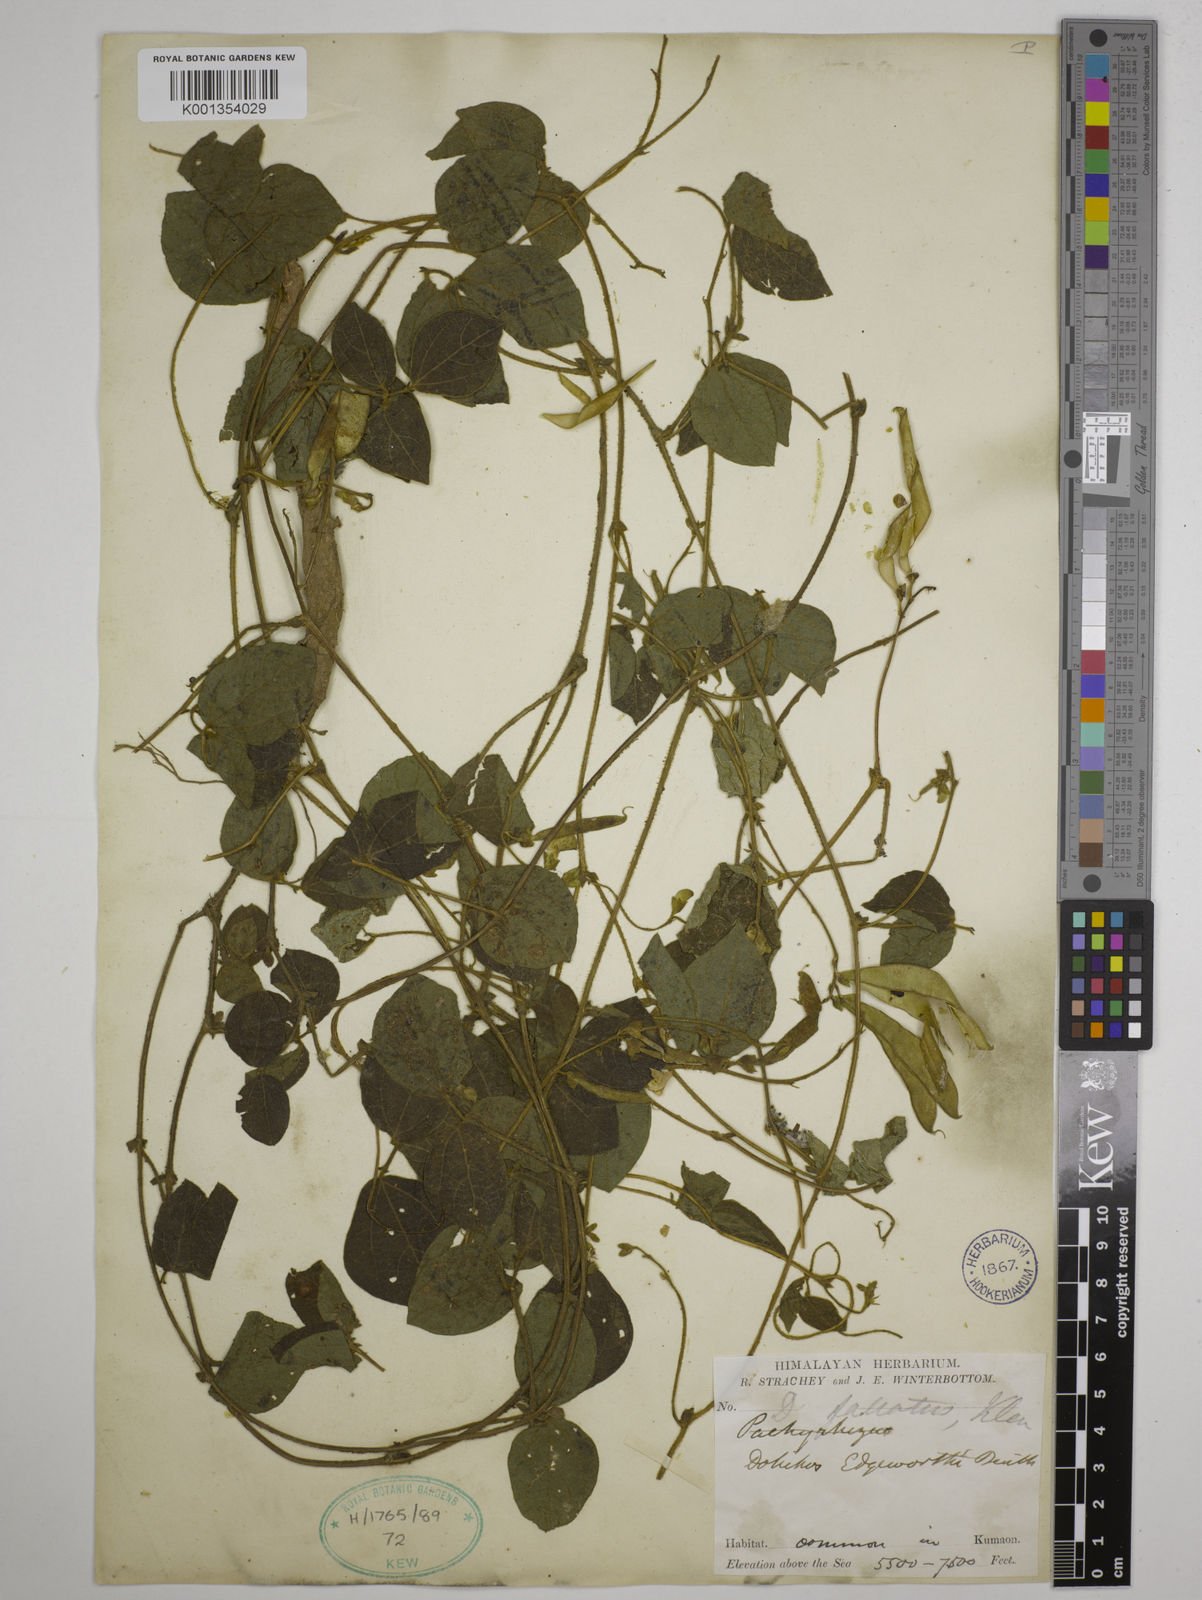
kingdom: Plantae
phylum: Tracheophyta
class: Magnoliopsida
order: Fabales
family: Fabaceae
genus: Dolichos
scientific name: Dolichos
